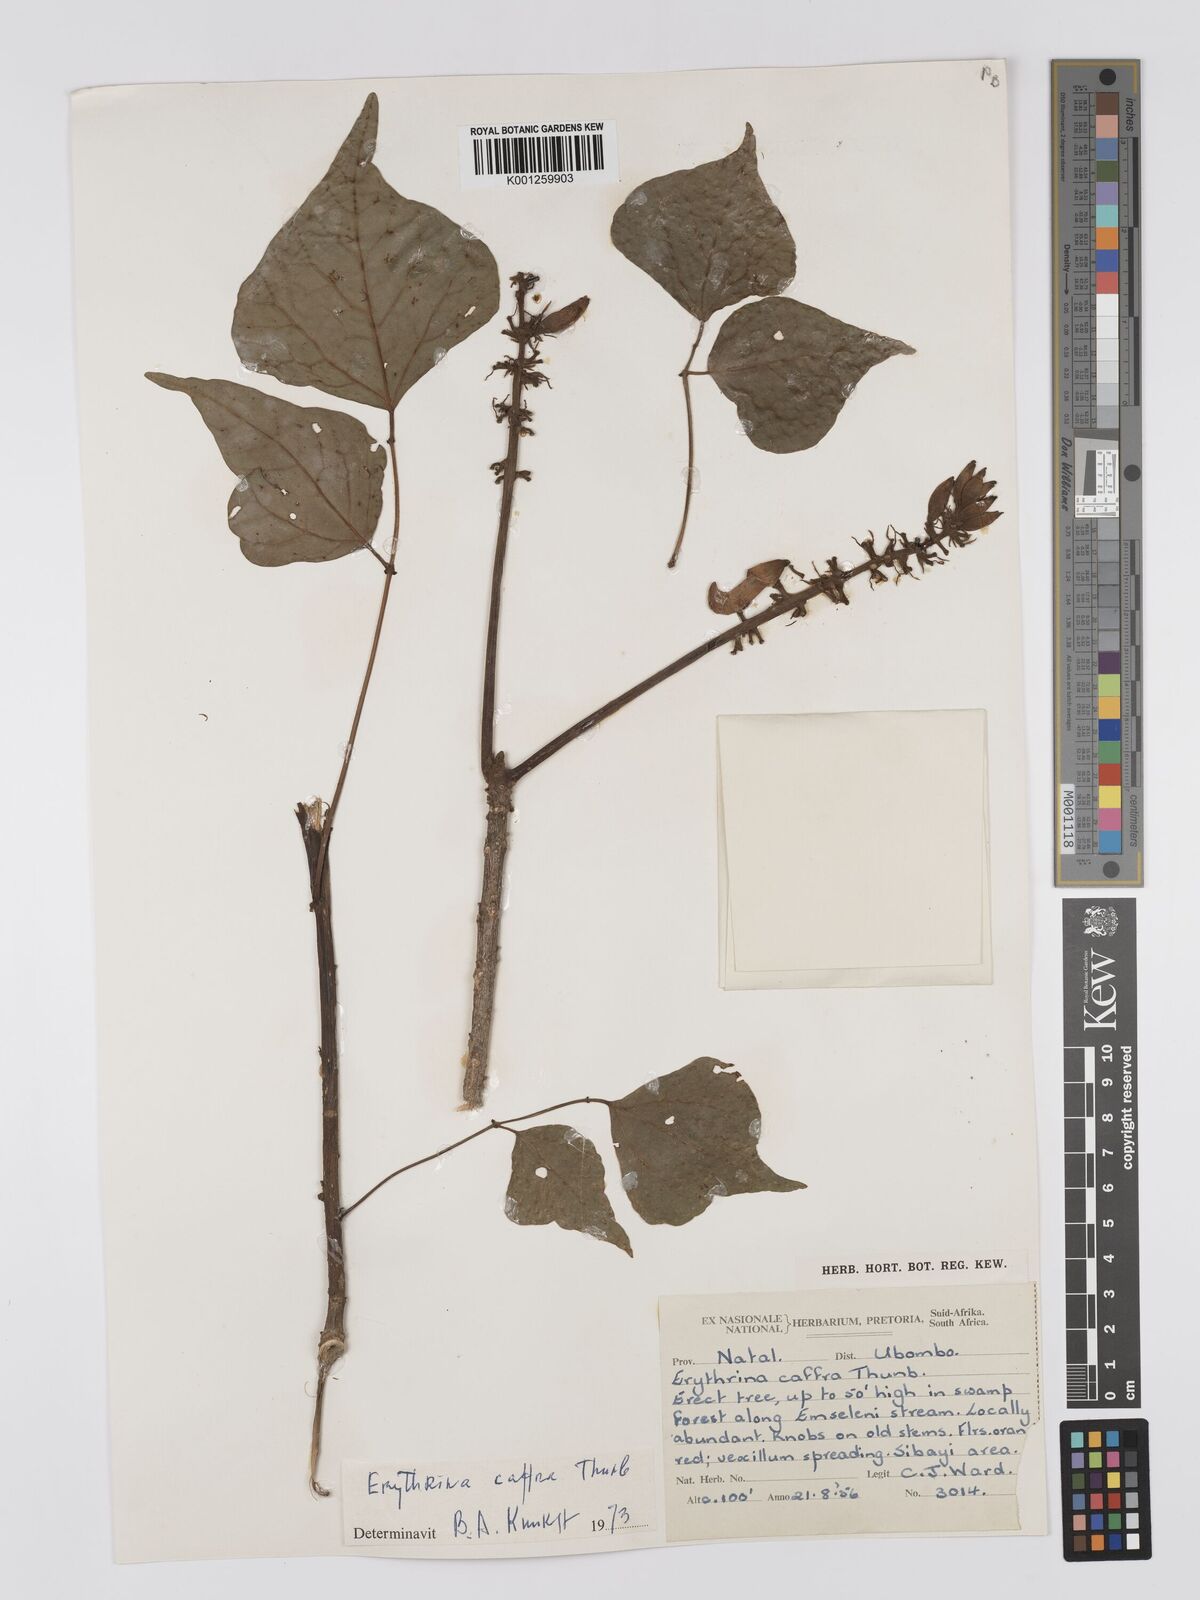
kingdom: Plantae
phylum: Tracheophyta
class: Magnoliopsida
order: Fabales
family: Fabaceae
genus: Erythrina
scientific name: Erythrina caffra
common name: Coast coral tree
